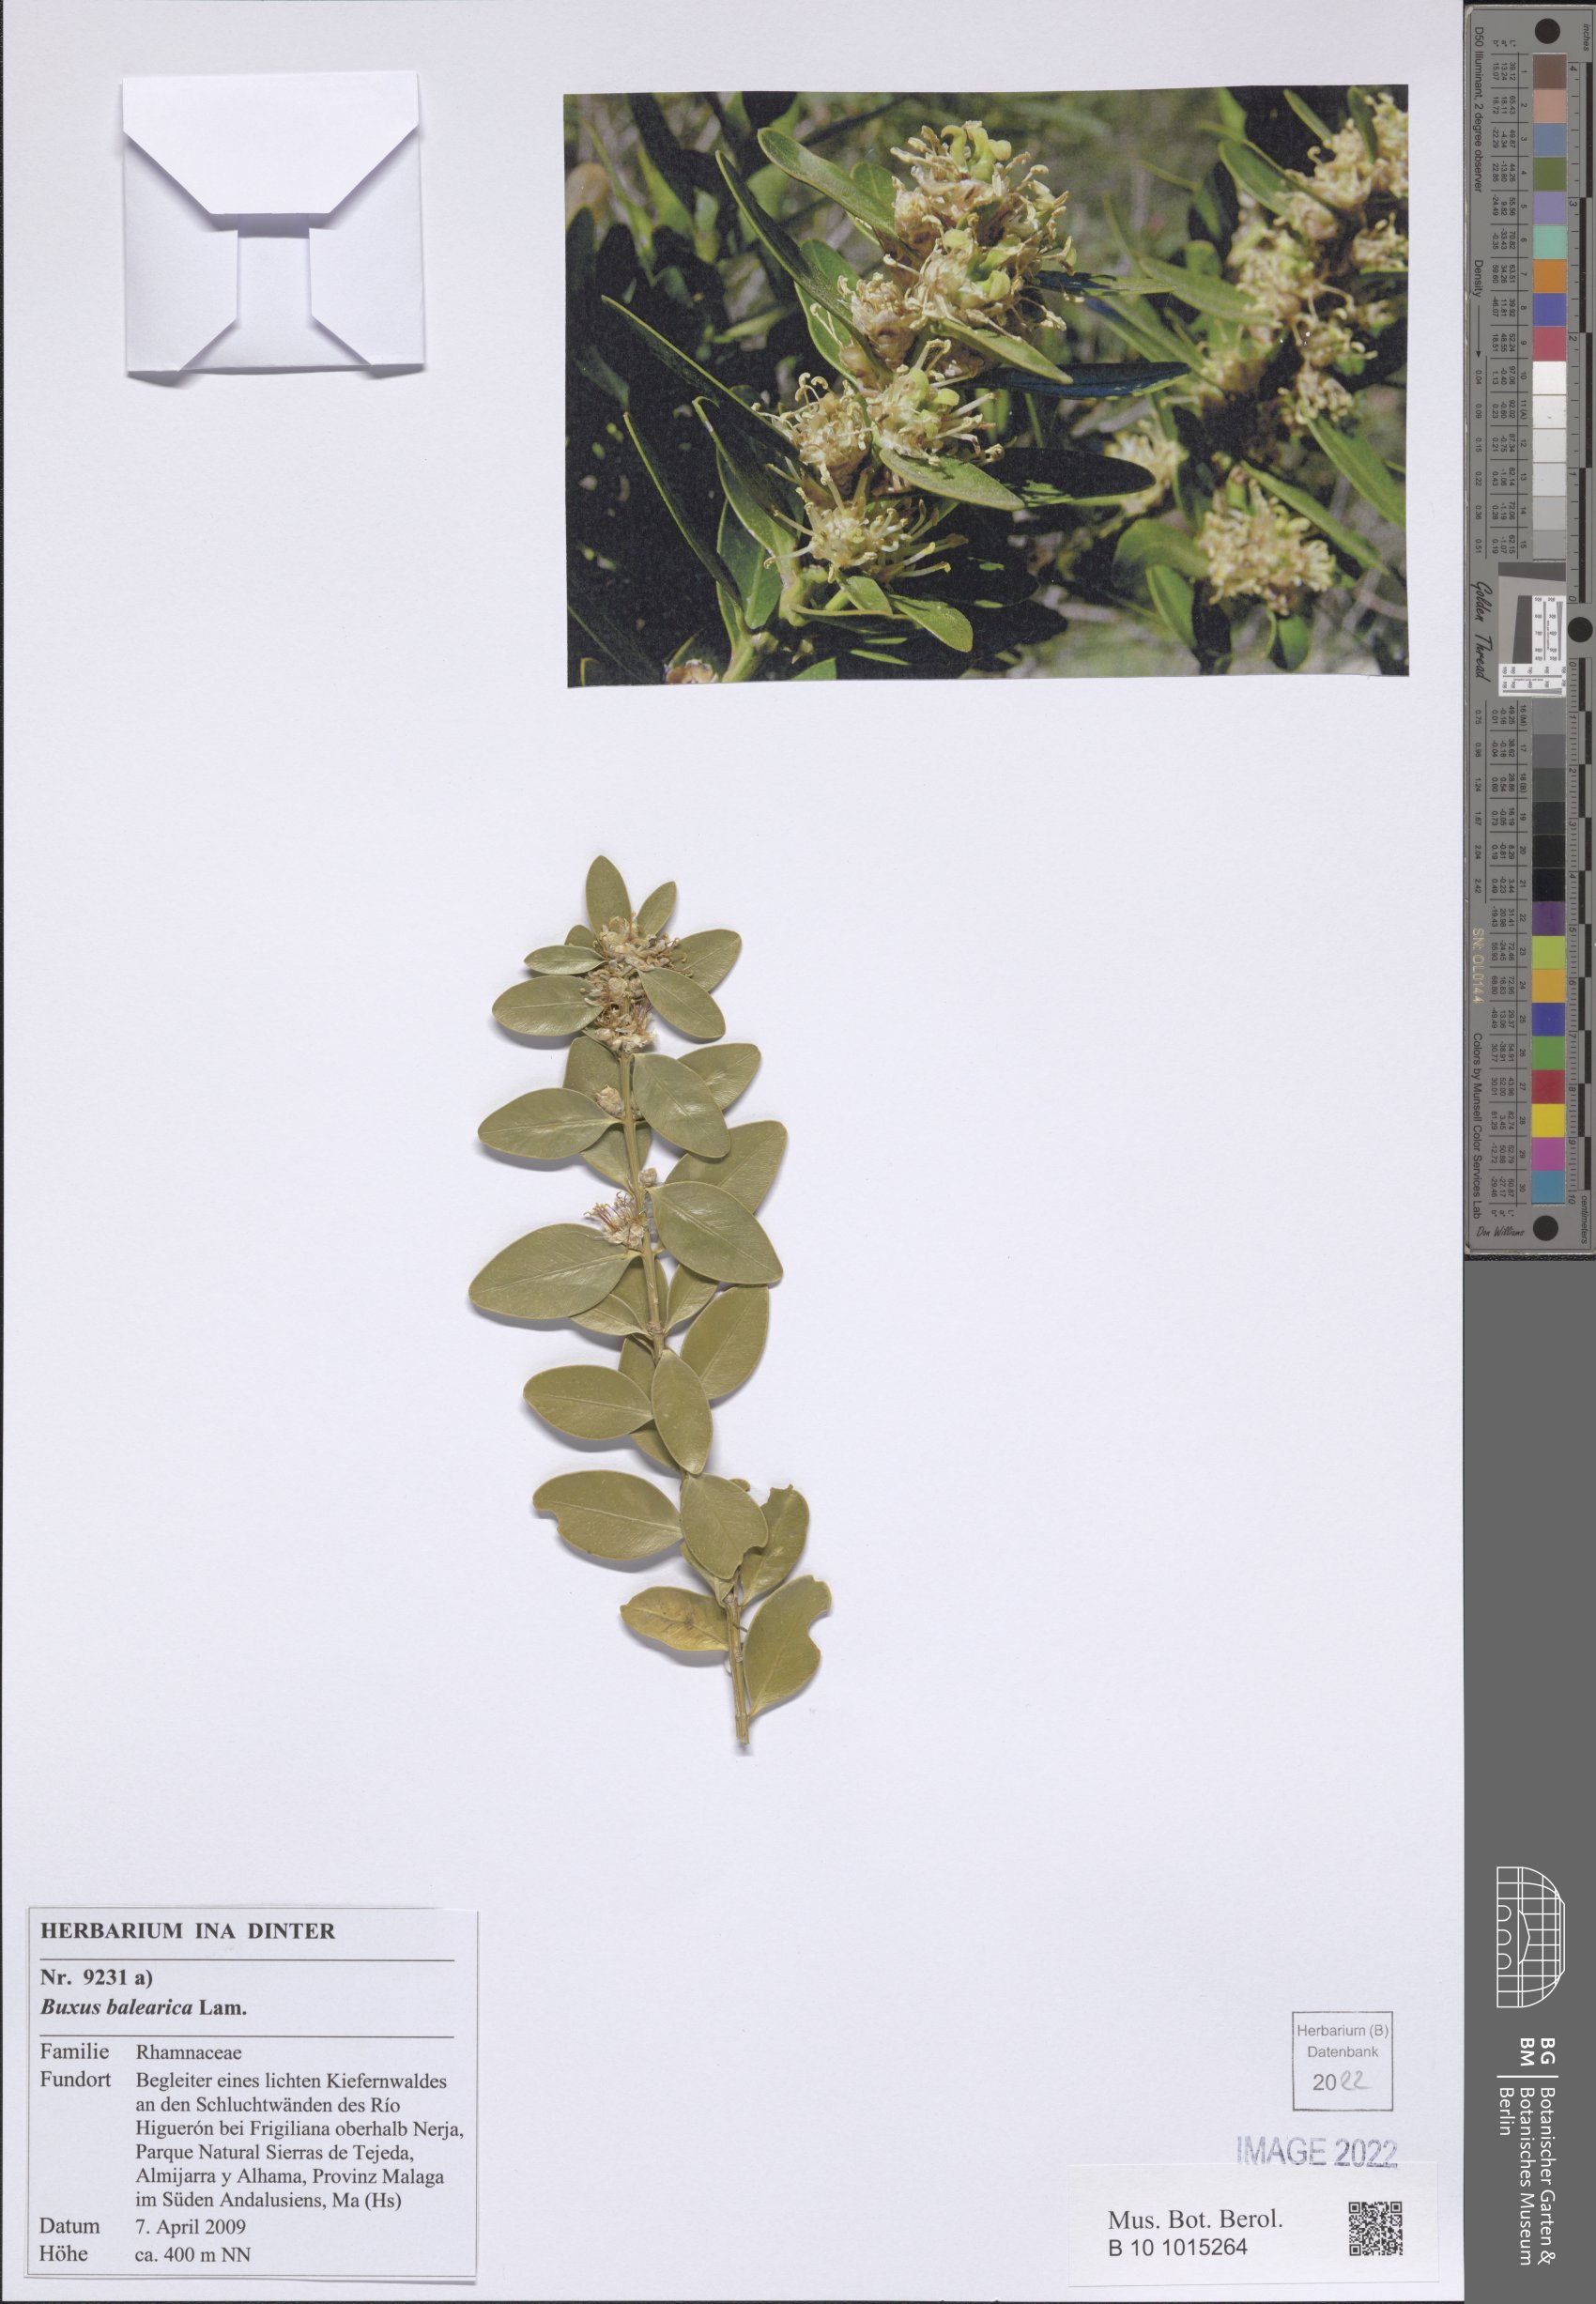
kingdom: Plantae
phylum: Tracheophyta
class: Magnoliopsida
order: Buxales
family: Buxaceae
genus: Buxus
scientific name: Buxus balearica
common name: Balearic box
